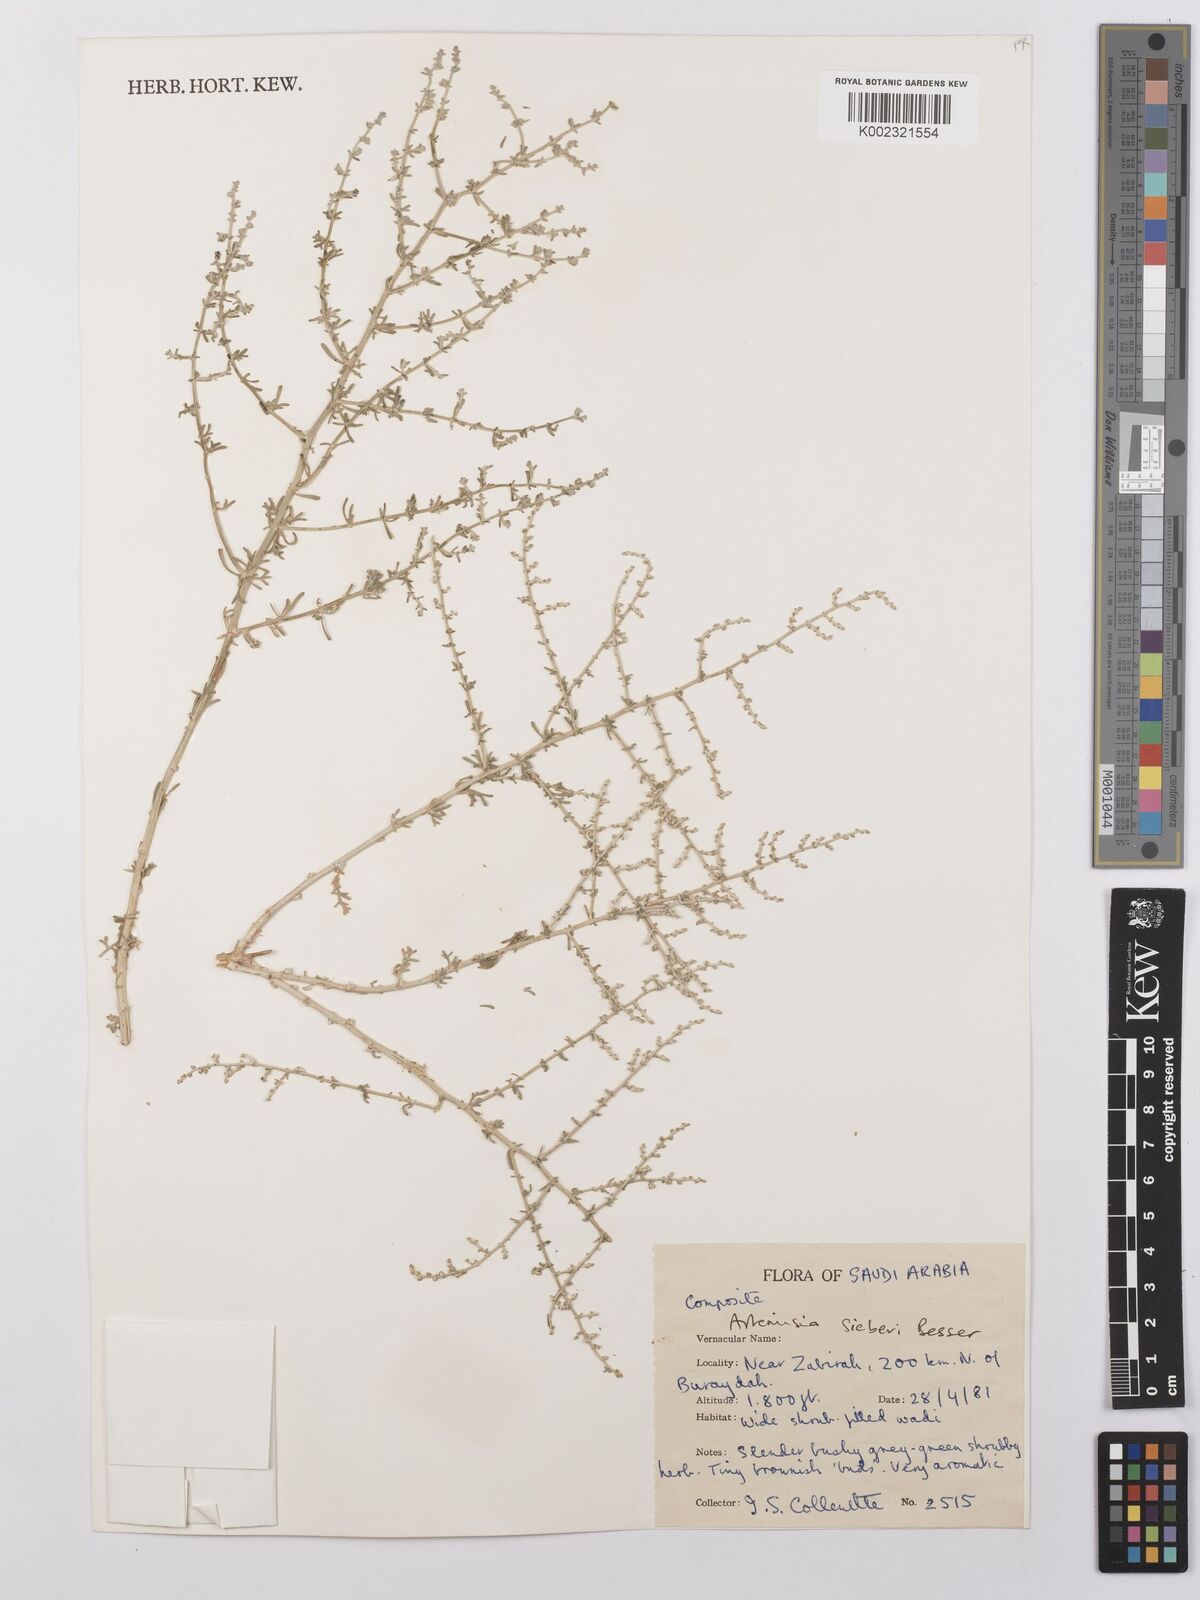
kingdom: Plantae
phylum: Tracheophyta
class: Magnoliopsida
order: Asterales
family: Asteraceae
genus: Artemisia
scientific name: Artemisia sieberi
